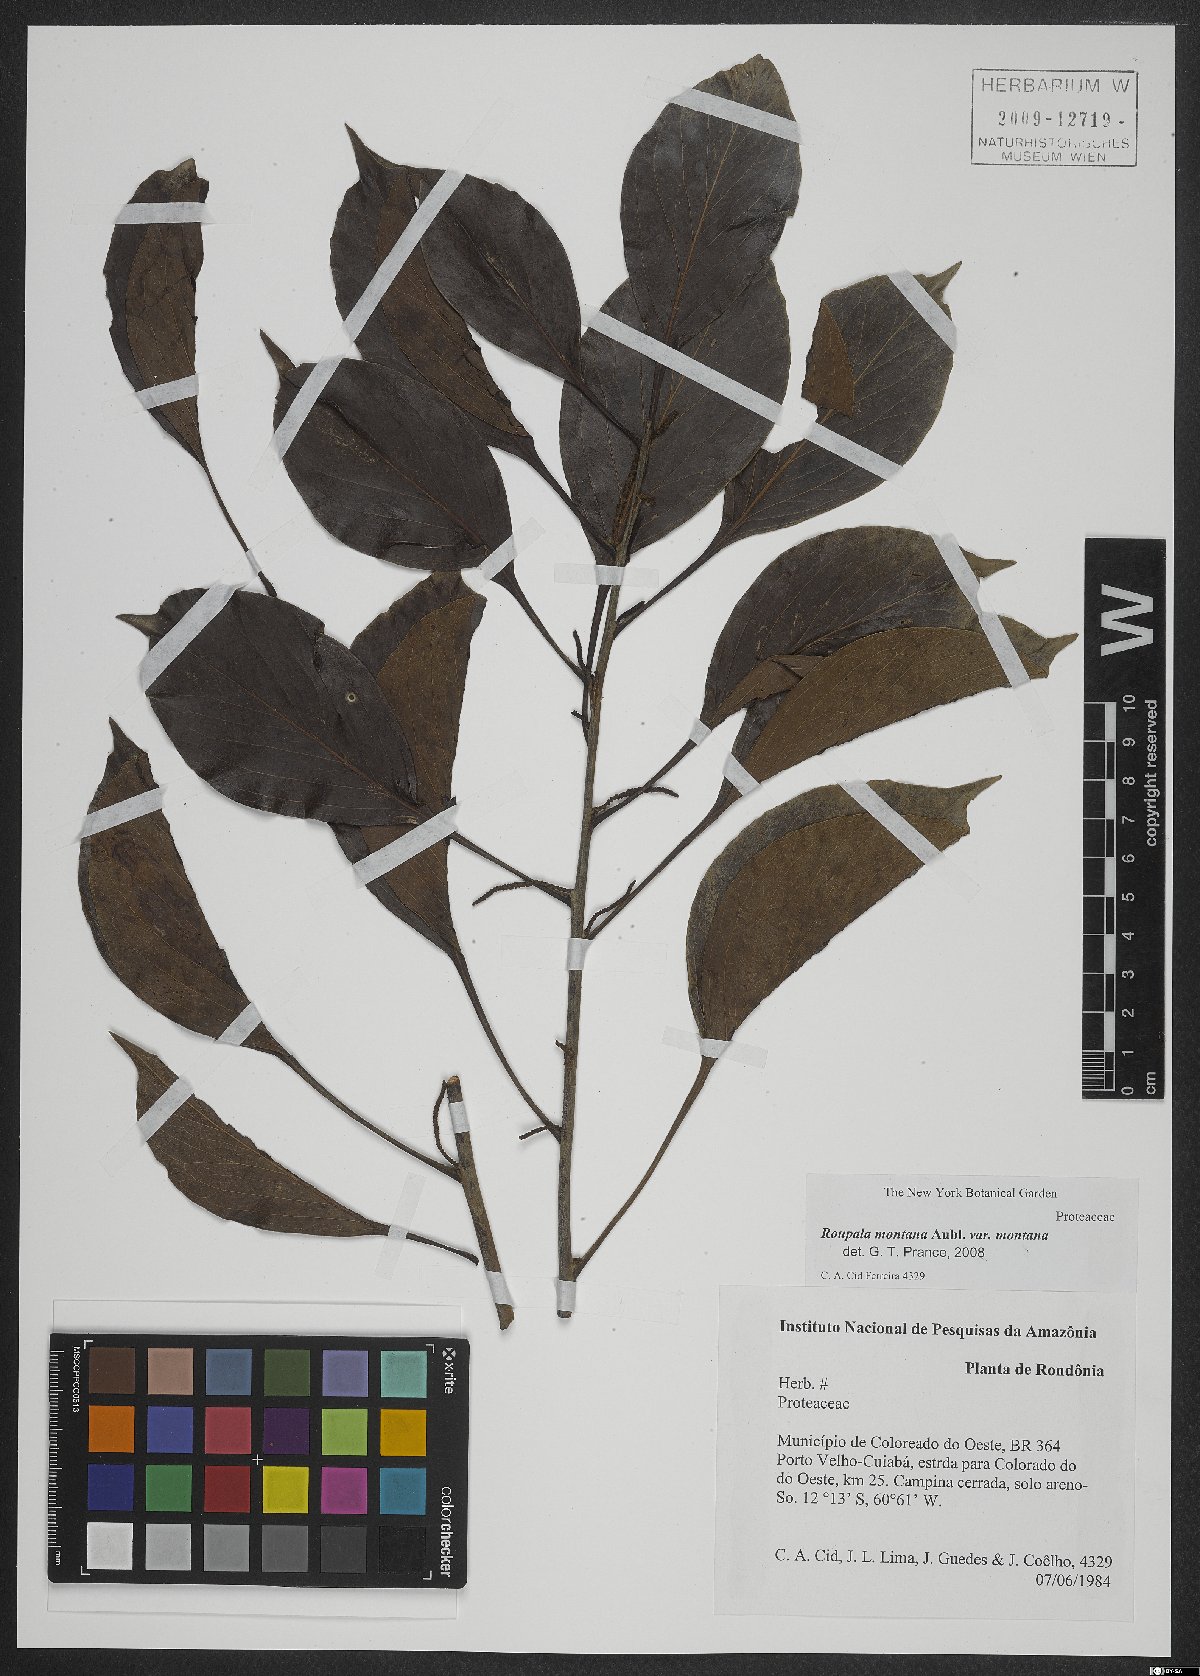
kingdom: Plantae
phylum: Tracheophyta
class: Magnoliopsida
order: Proteales
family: Proteaceae
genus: Roupala
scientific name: Roupala montana
